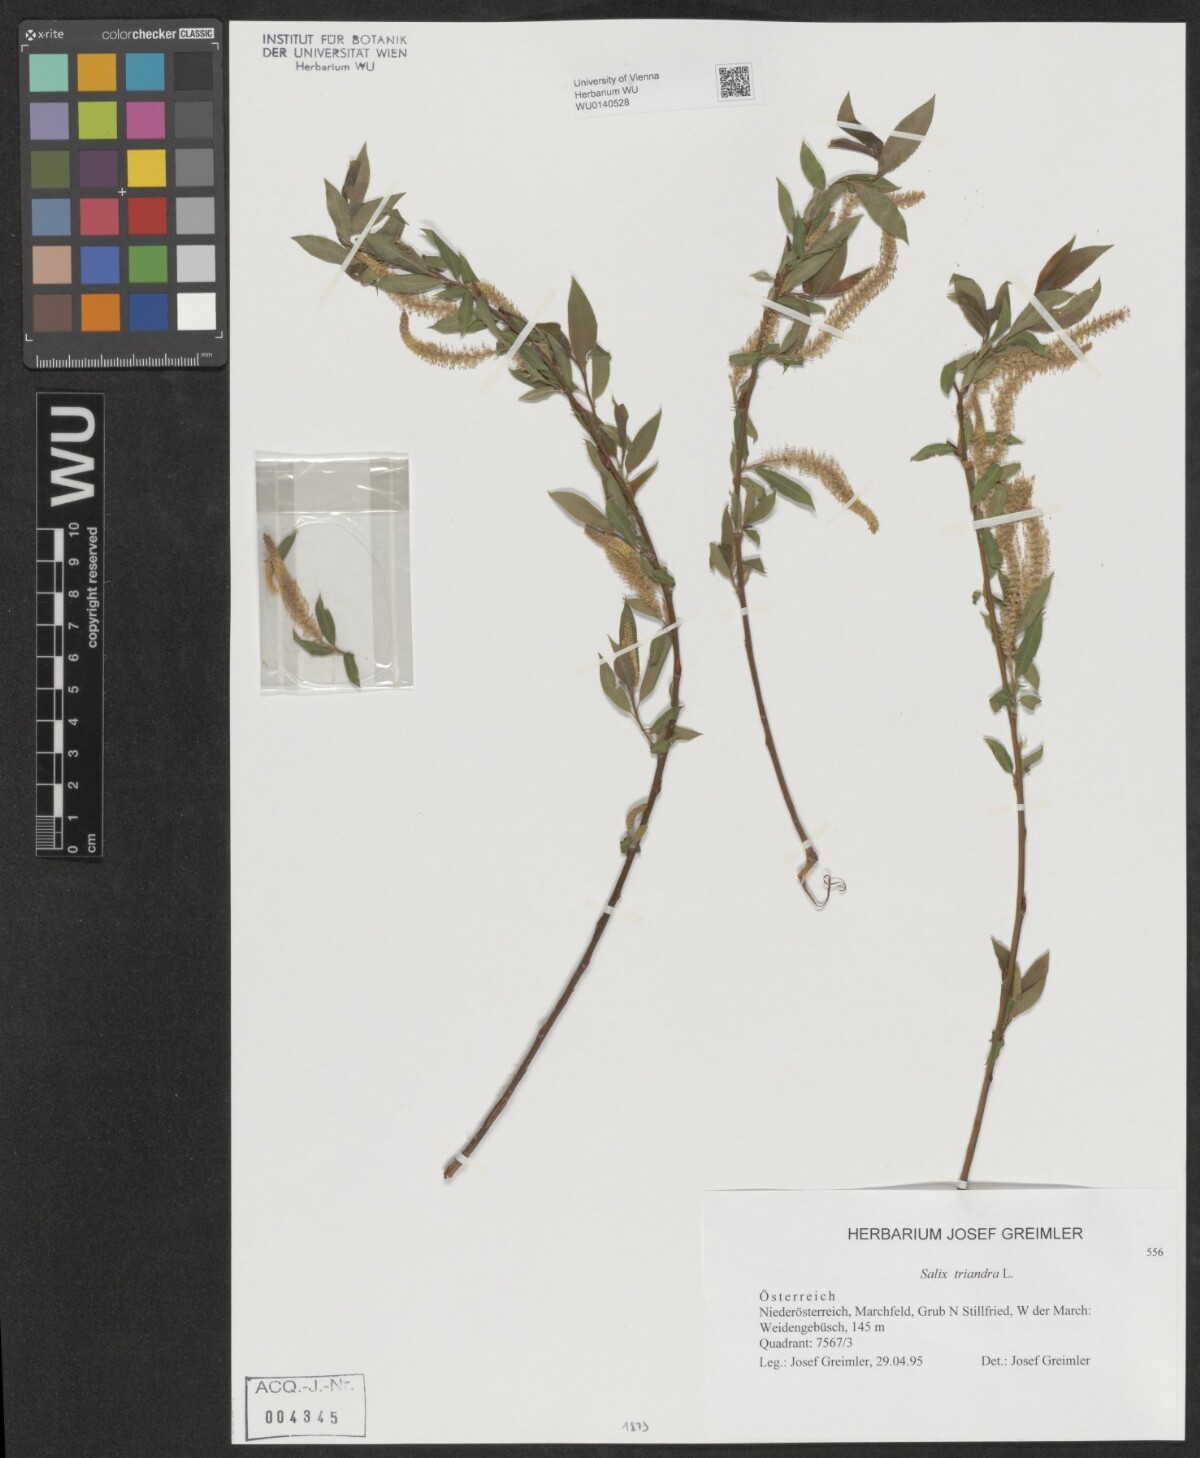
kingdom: Plantae
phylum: Tracheophyta
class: Magnoliopsida
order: Malpighiales
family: Salicaceae
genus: Salix
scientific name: Salix triandra
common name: Almond willow
